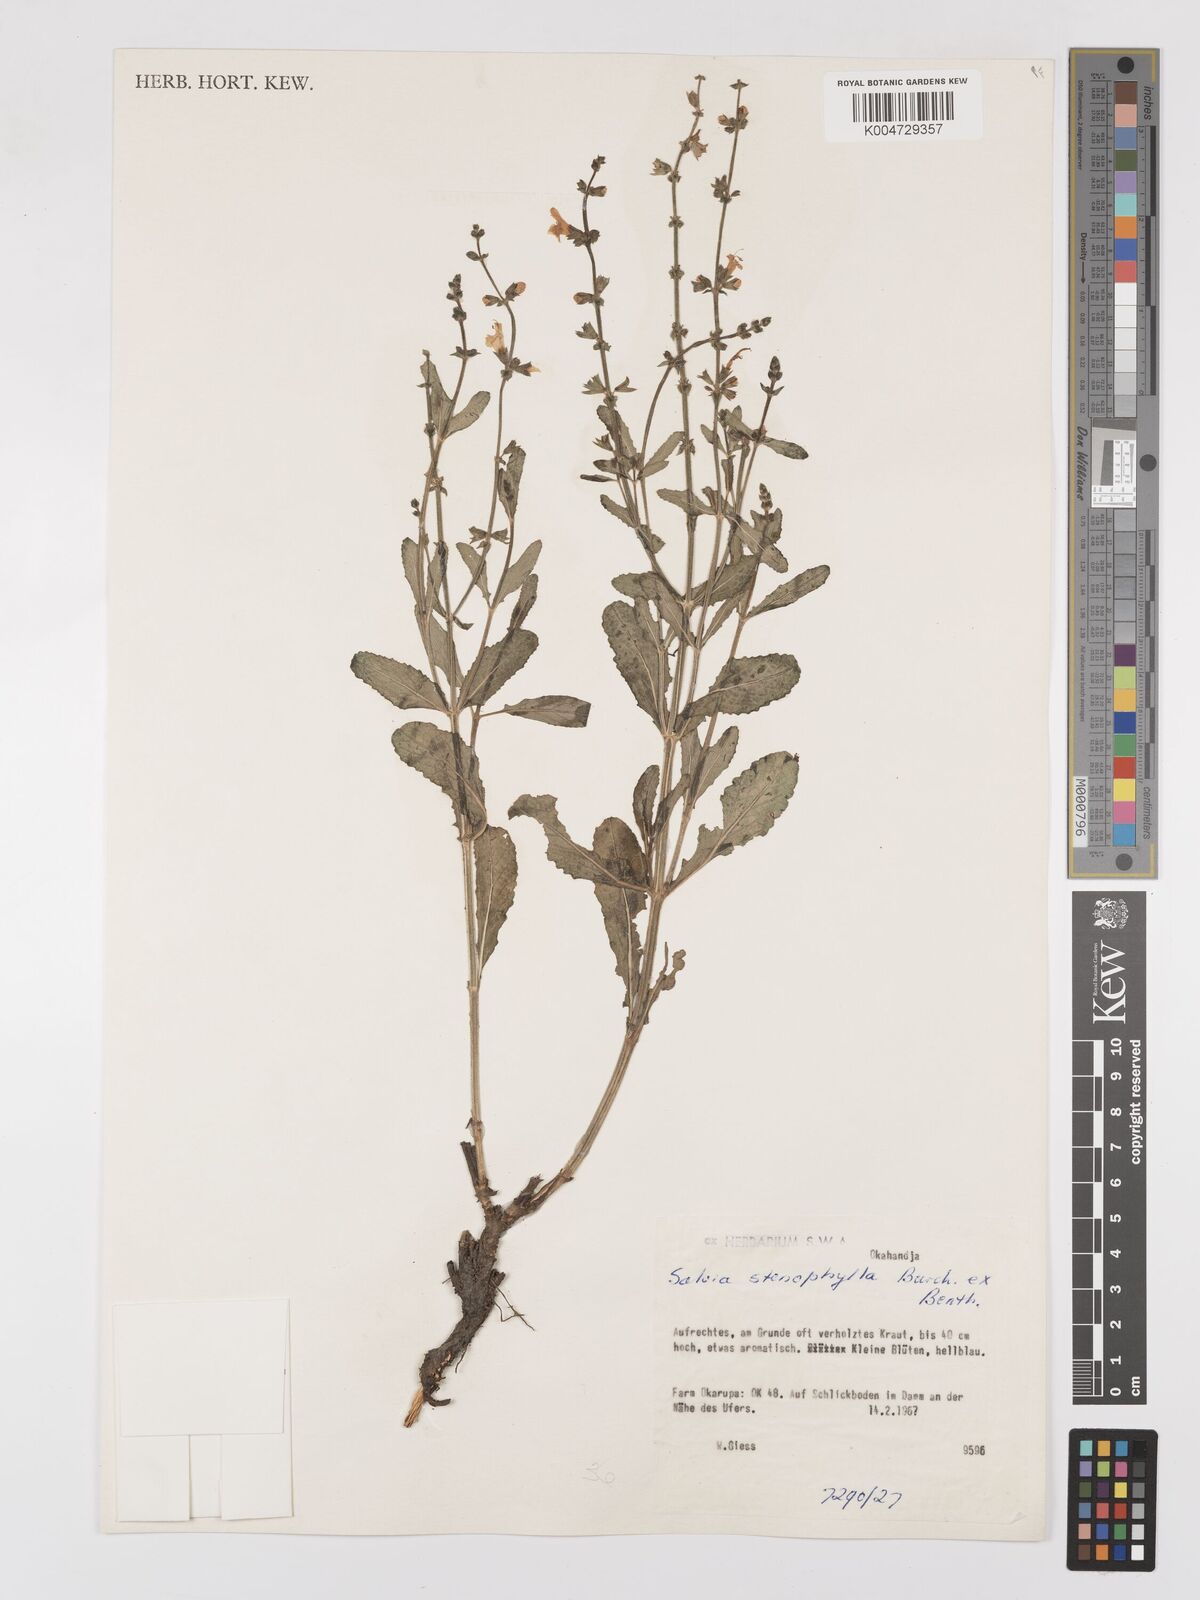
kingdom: Plantae
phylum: Tracheophyta
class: Magnoliopsida
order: Lamiales
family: Lamiaceae
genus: Salvia
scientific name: Salvia stenophylla
